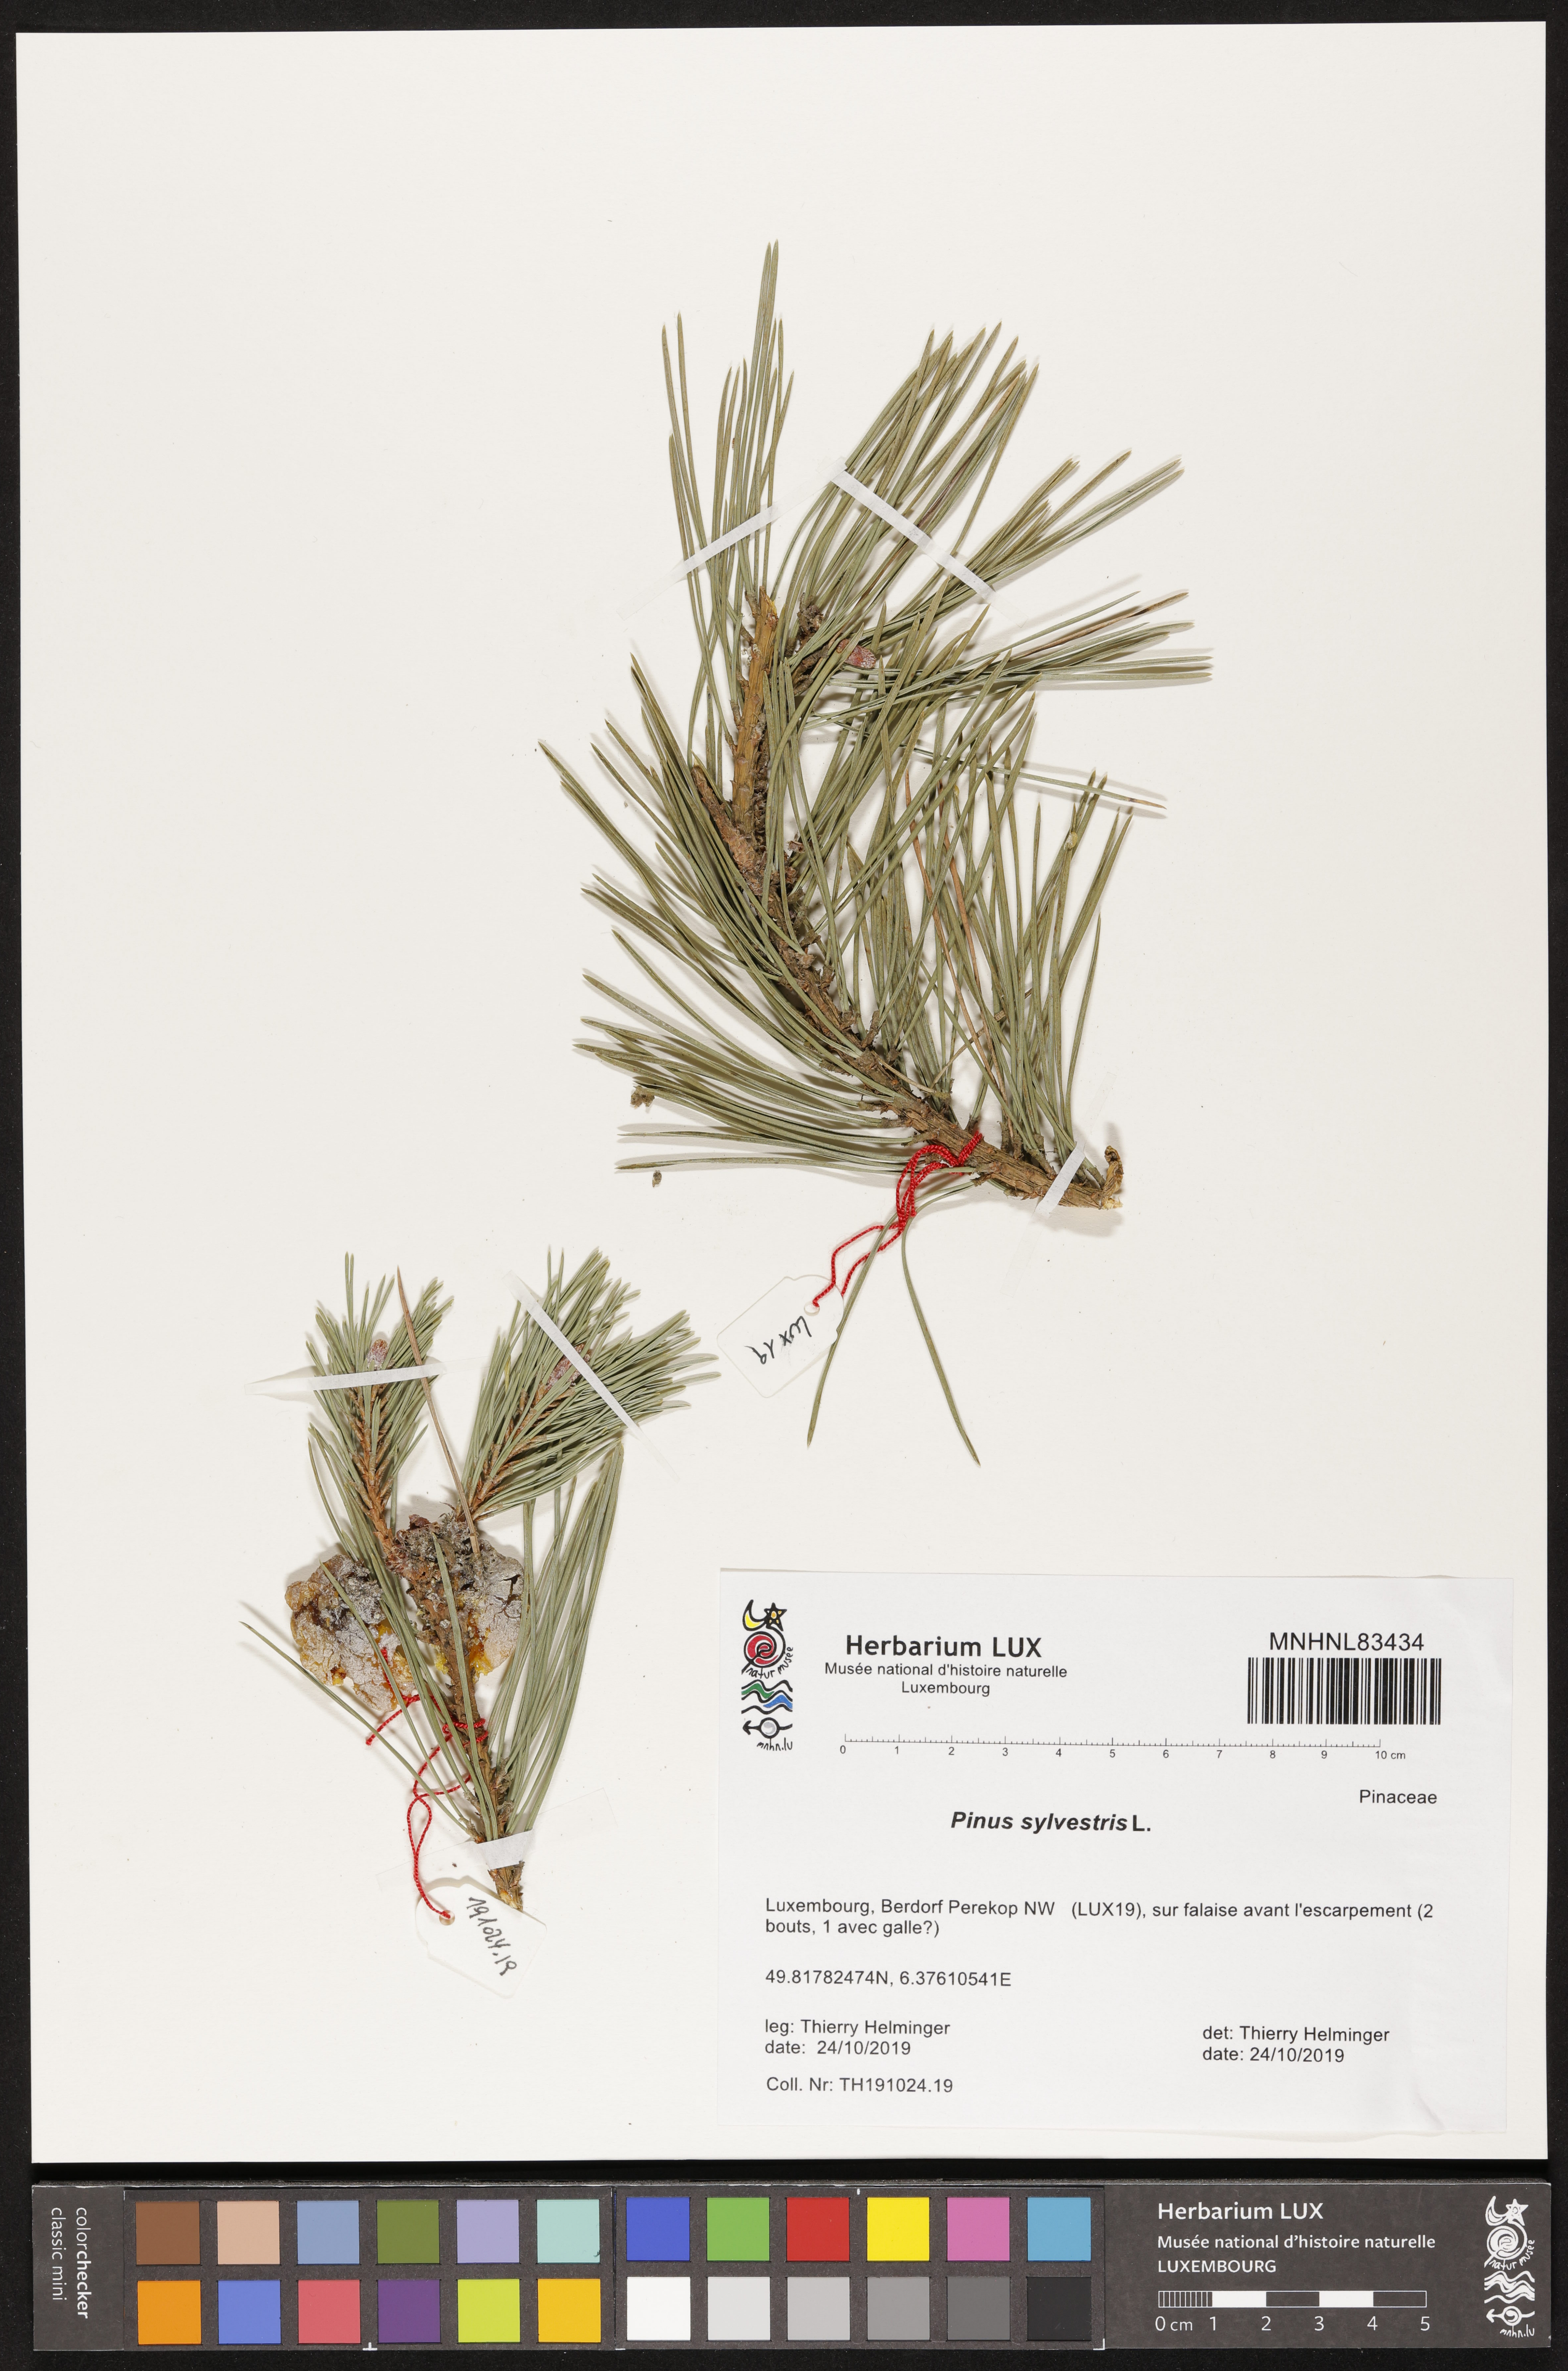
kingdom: Plantae
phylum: Tracheophyta
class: Pinopsida
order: Pinales
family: Pinaceae
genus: Pinus
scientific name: Pinus sylvestris
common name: Scots pine
